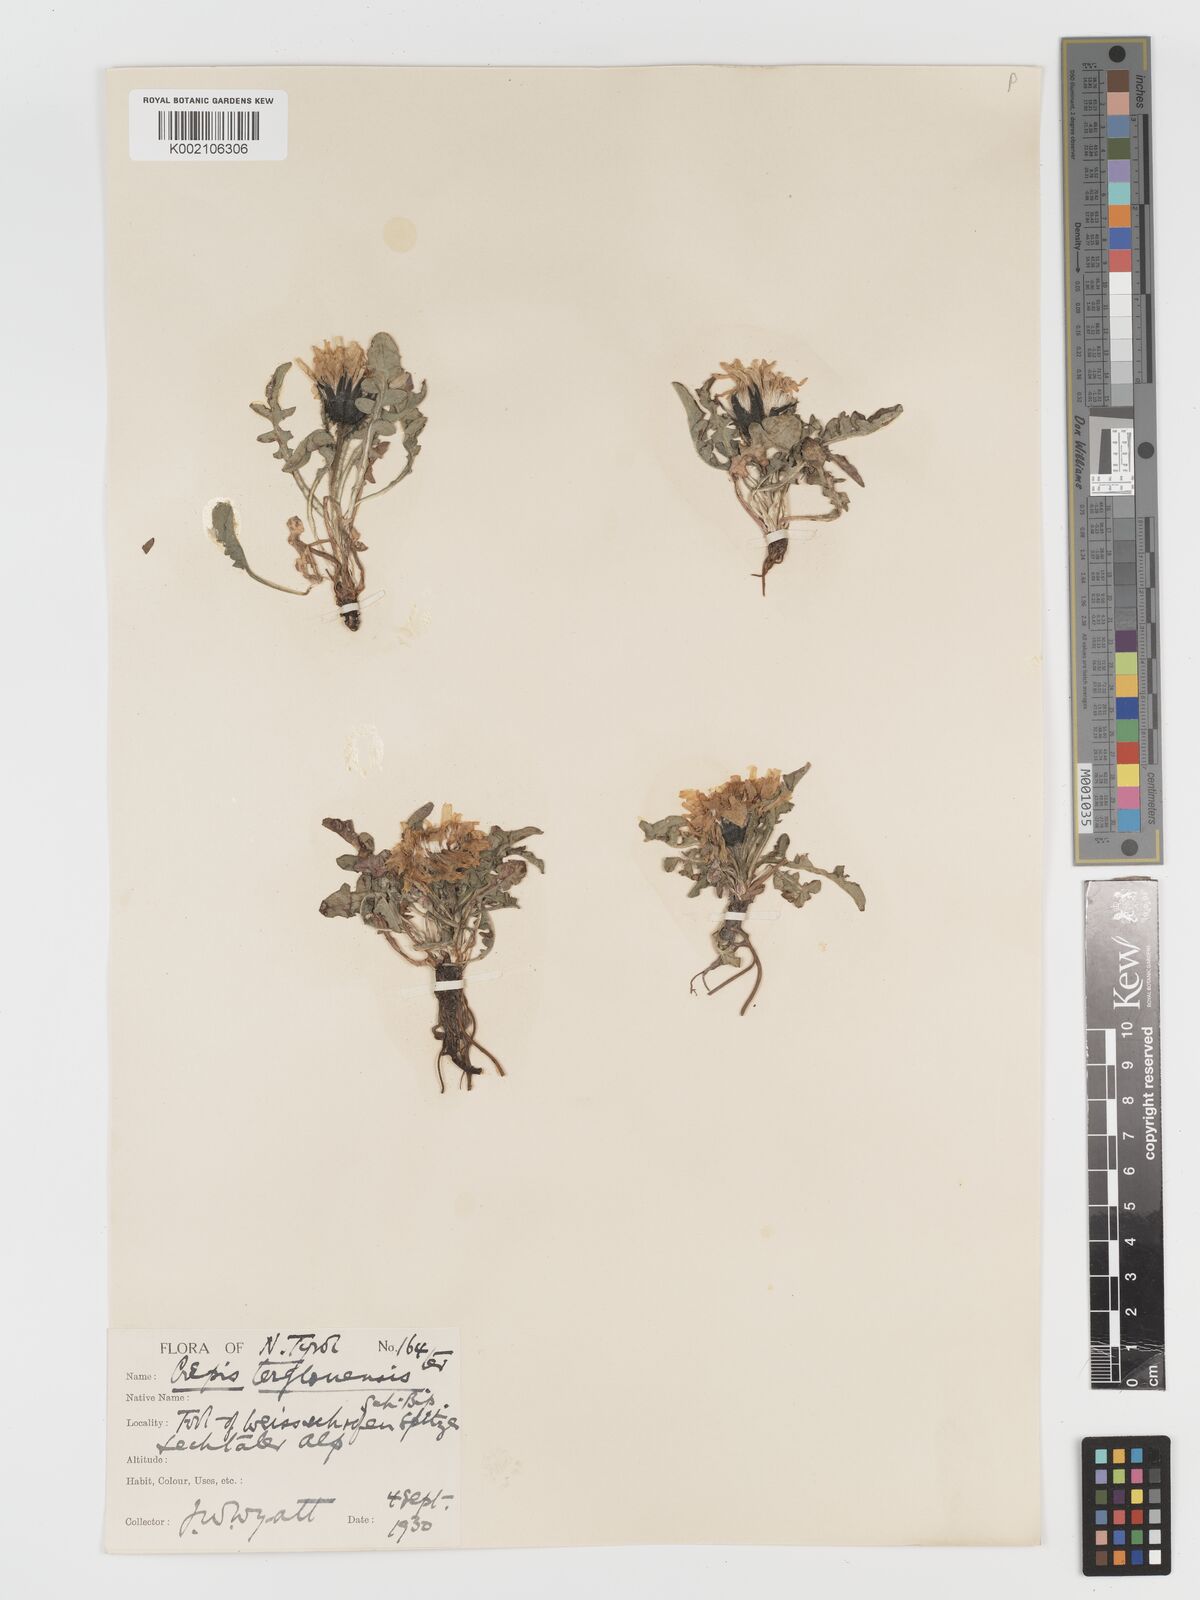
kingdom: Plantae
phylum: Tracheophyta
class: Magnoliopsida
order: Asterales
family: Asteraceae
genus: Crepis
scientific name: Crepis terglouensis
